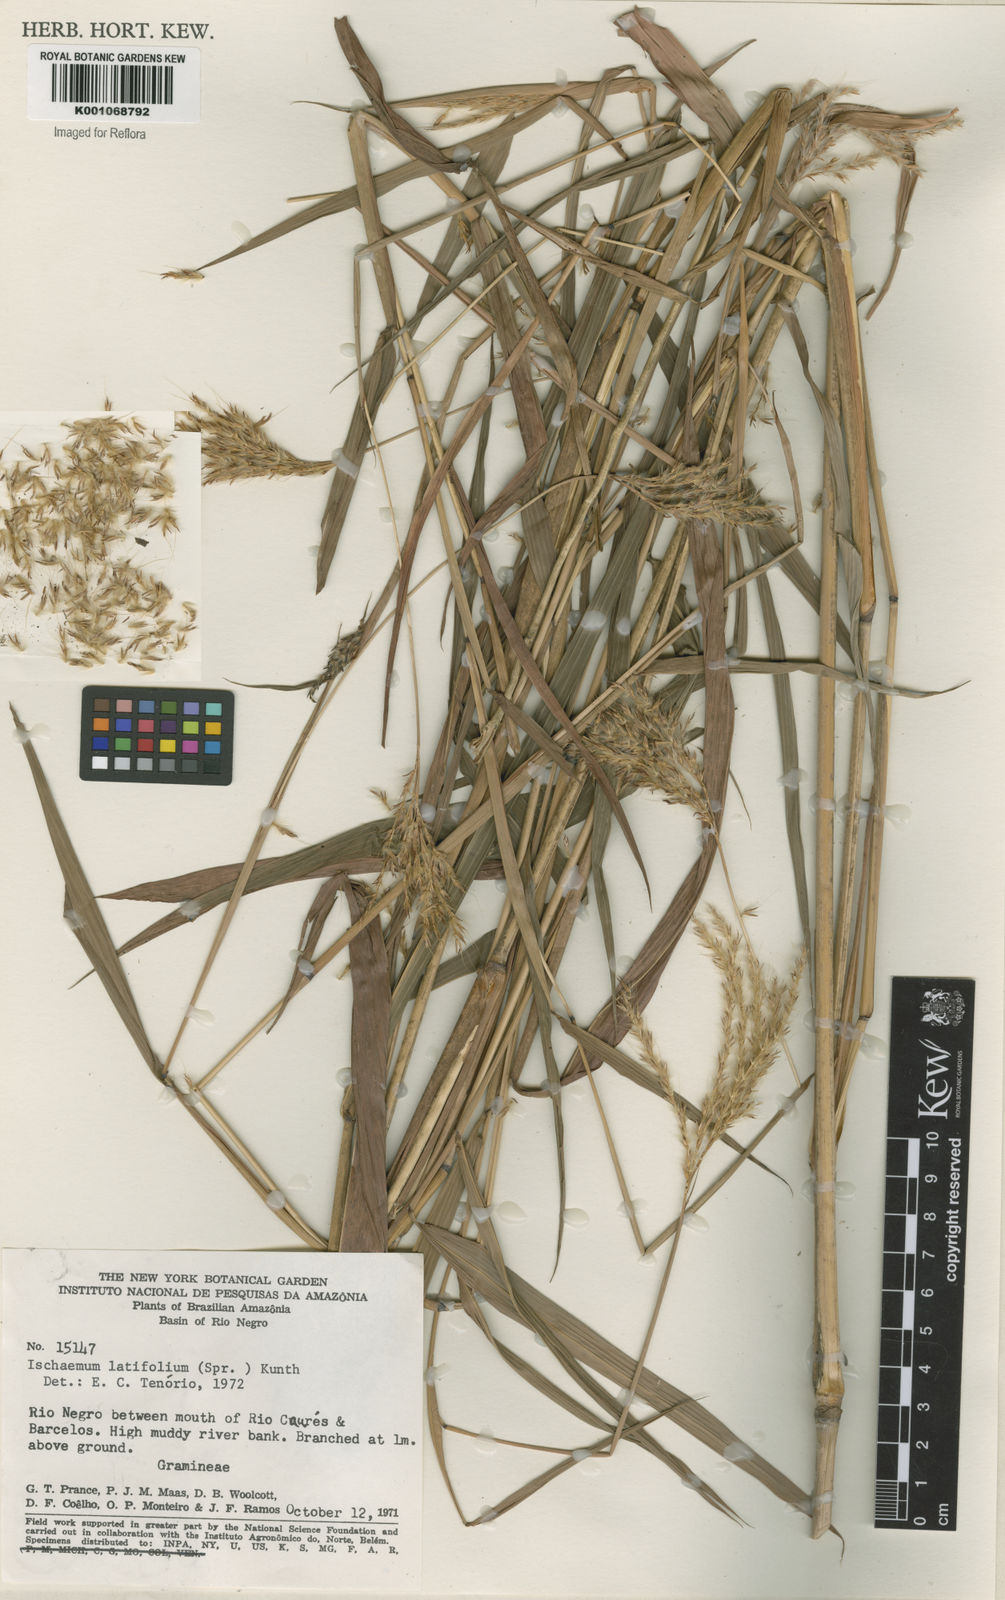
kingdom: Plantae
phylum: Tracheophyta
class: Liliopsida
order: Poales
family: Poaceae
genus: Ischaemum
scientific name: Ischaemum latifolium
